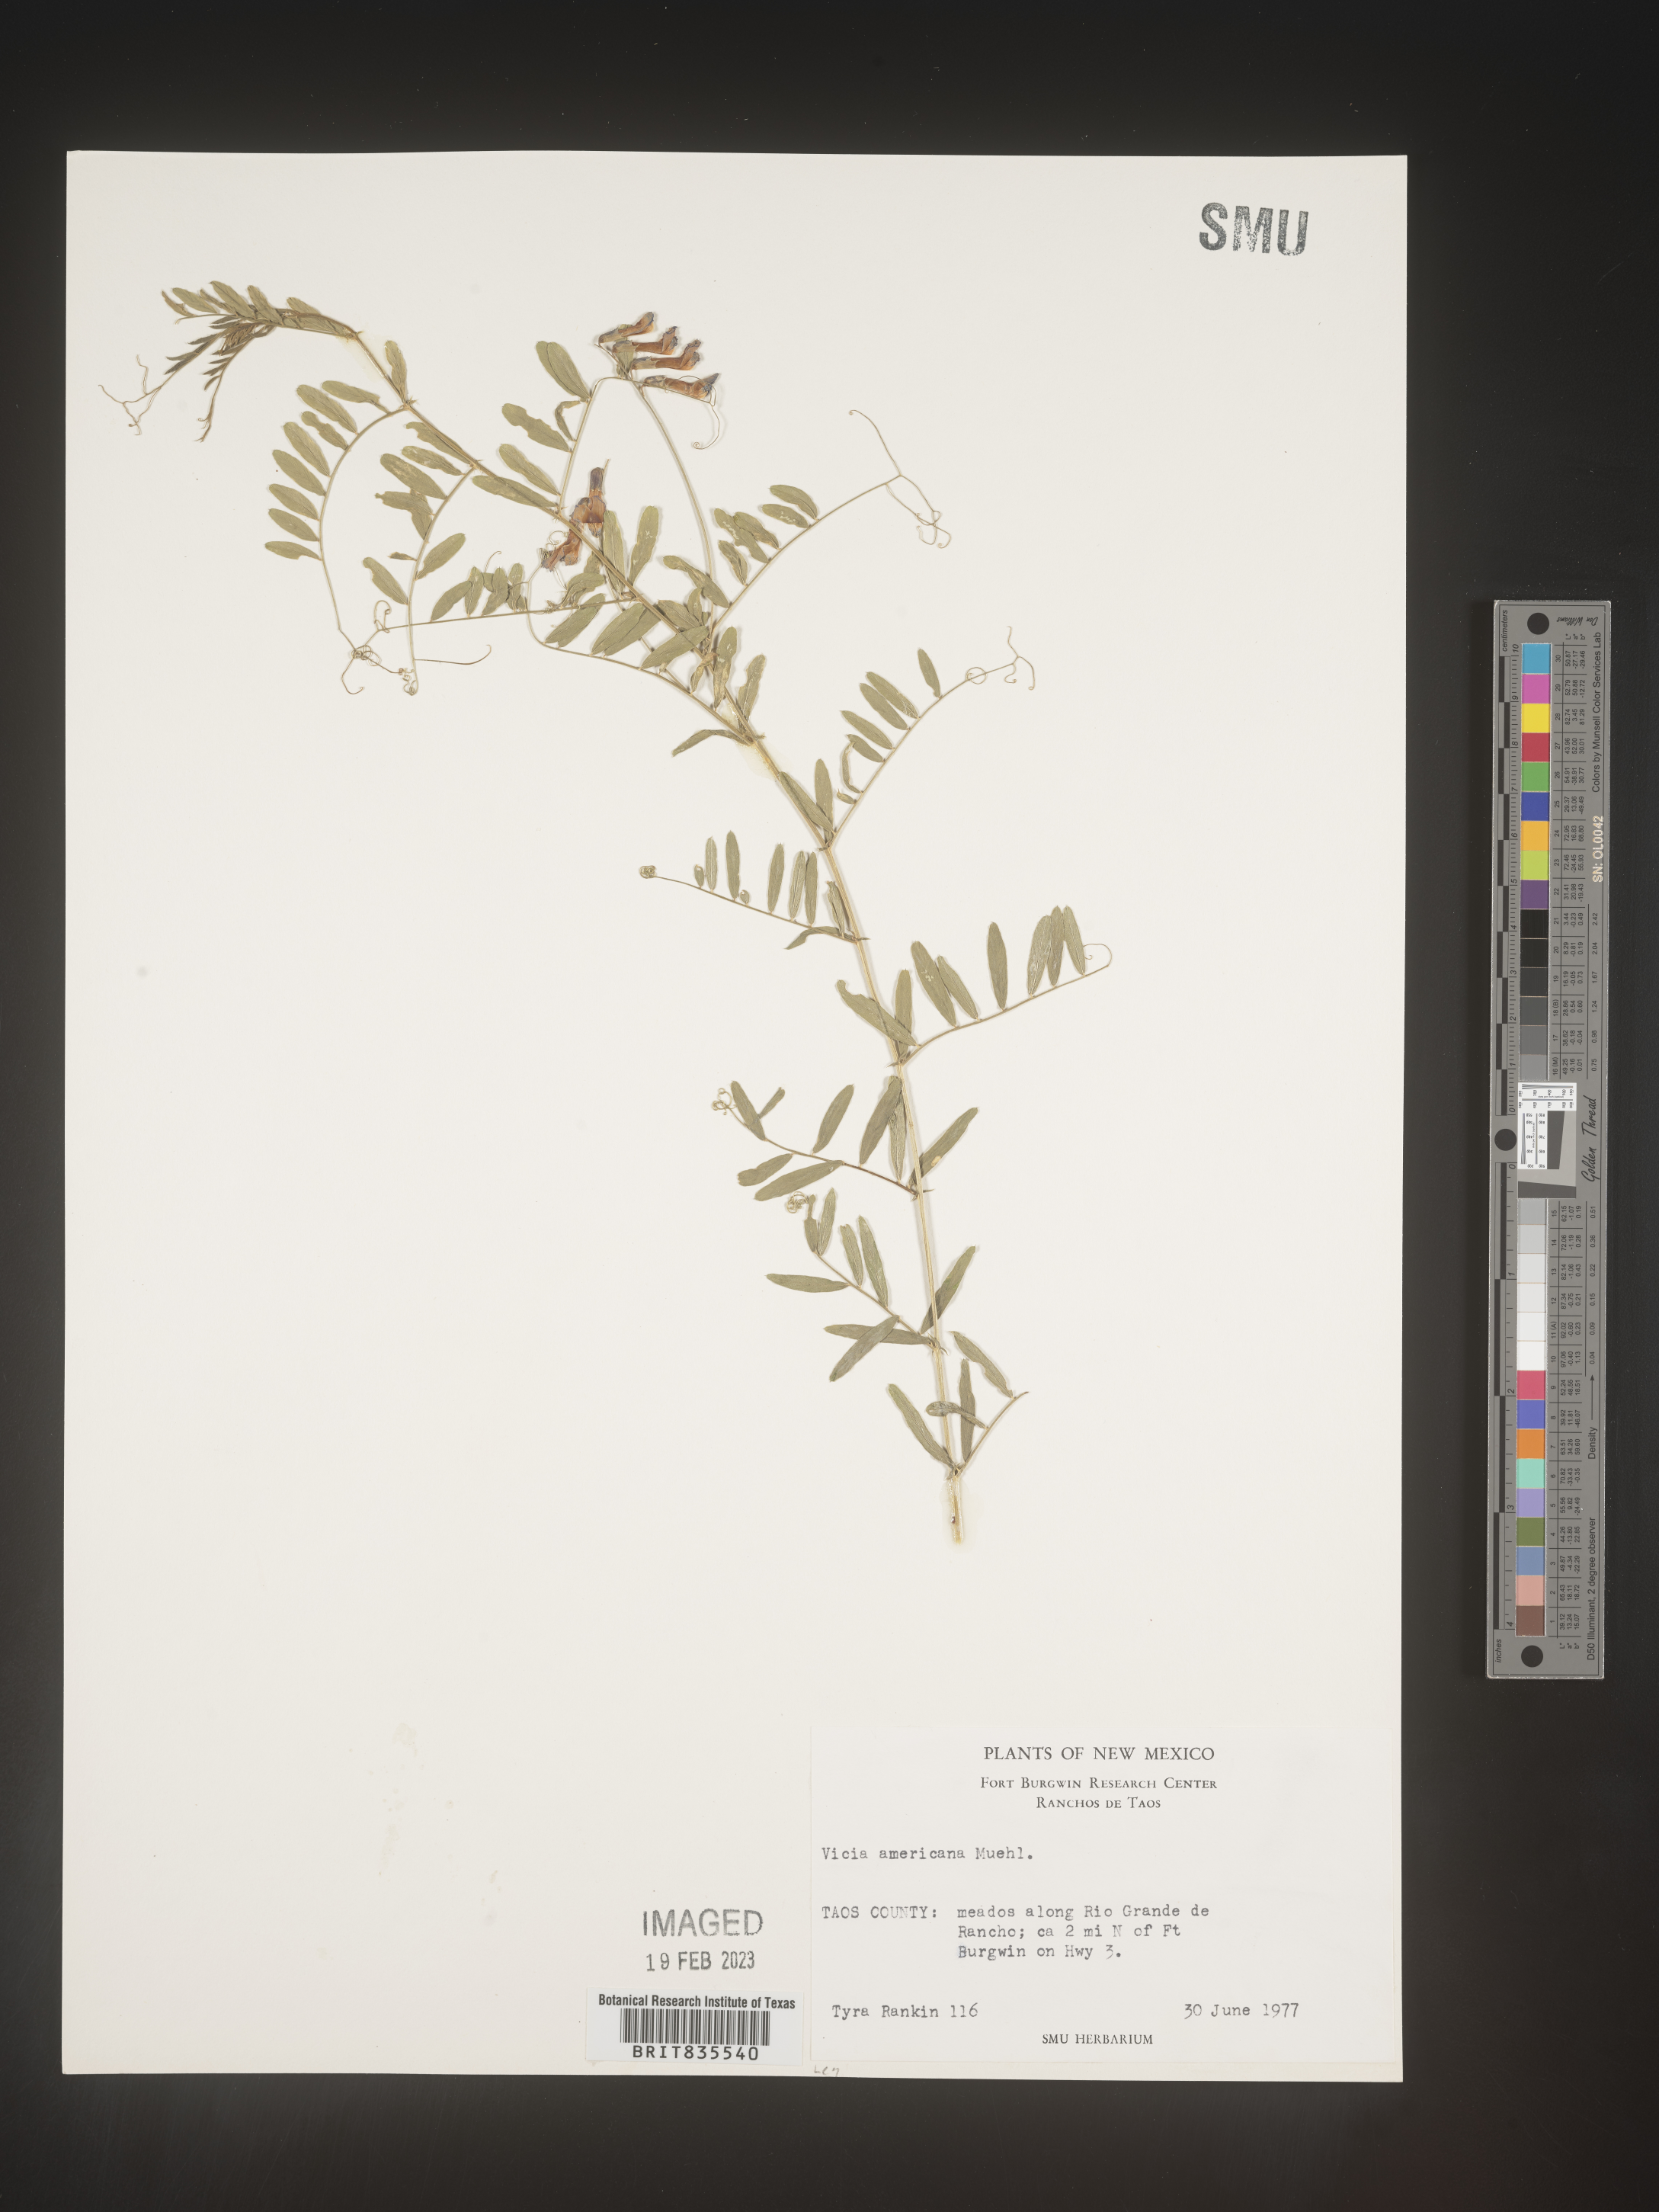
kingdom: Plantae
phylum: Tracheophyta
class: Magnoliopsida
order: Fabales
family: Fabaceae
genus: Vicia
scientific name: Vicia americana
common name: American vetch
